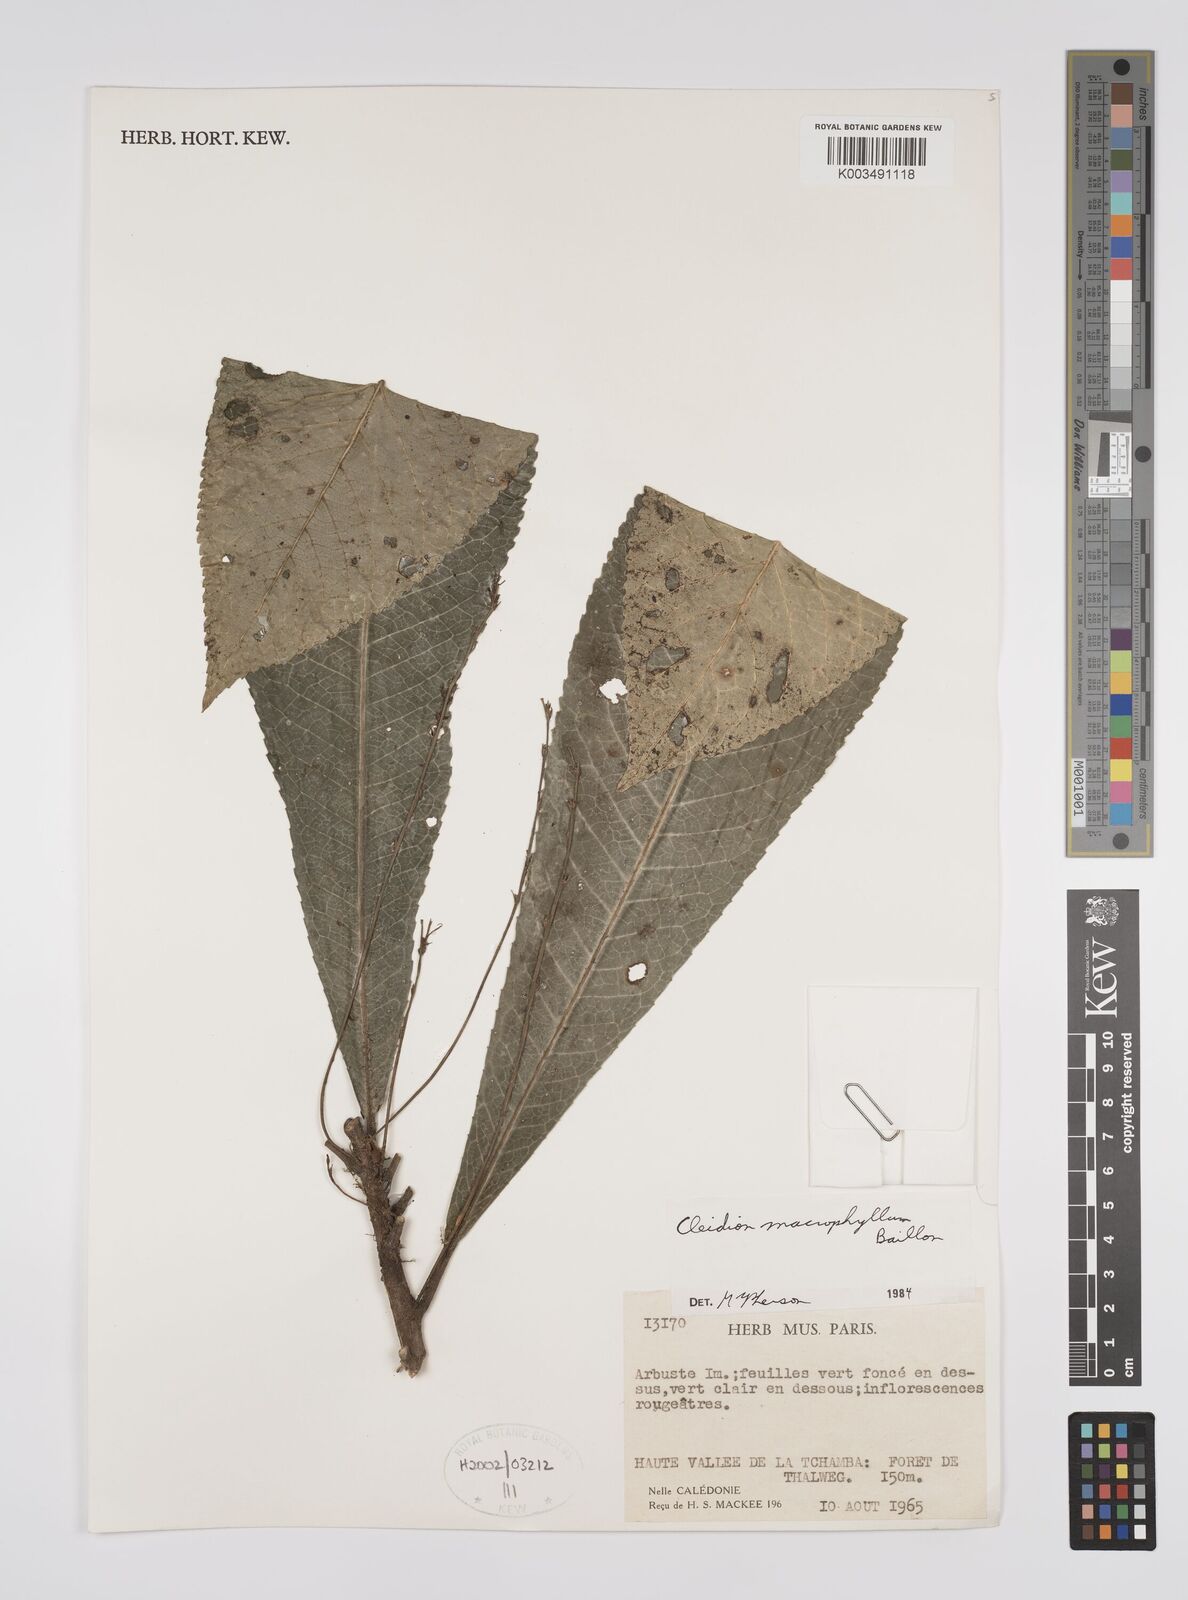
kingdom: Plantae
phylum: Tracheophyta
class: Magnoliopsida
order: Malpighiales
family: Euphorbiaceae
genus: Cleidion
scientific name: Cleidion macrophyllum
